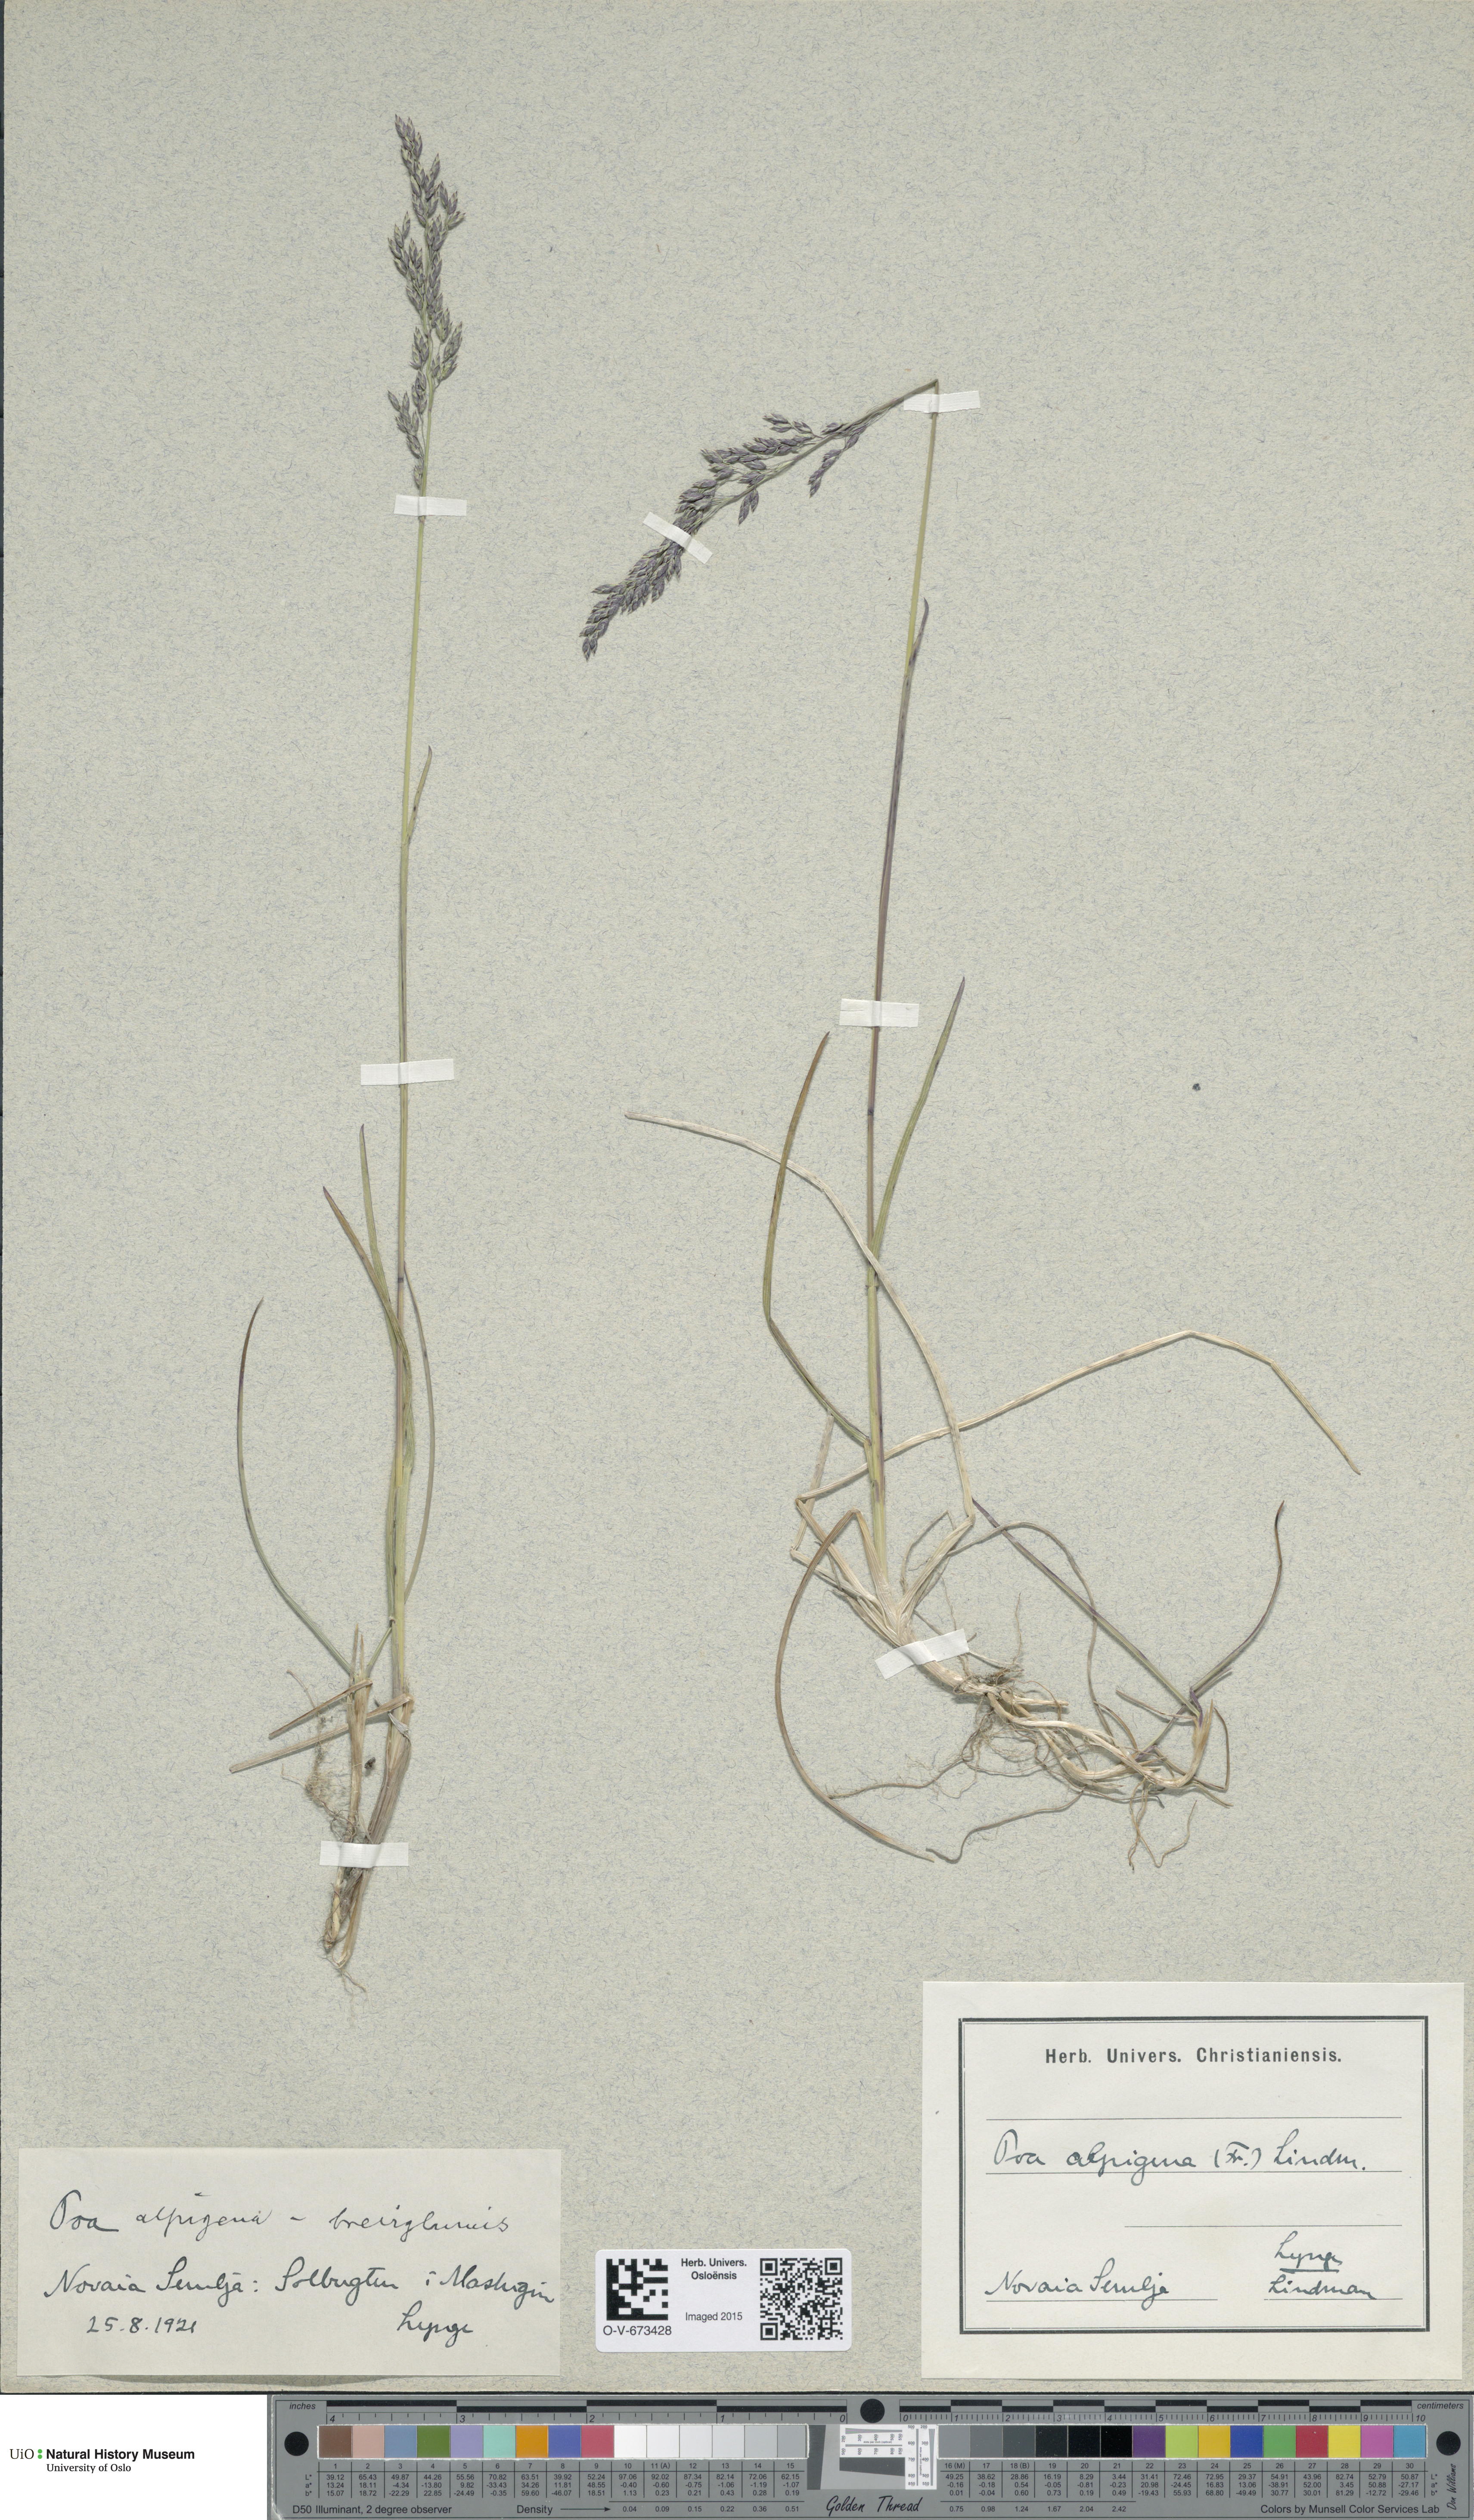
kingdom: Plantae
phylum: Tracheophyta
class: Liliopsida
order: Poales
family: Poaceae
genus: Poa
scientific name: Poa alpigena
